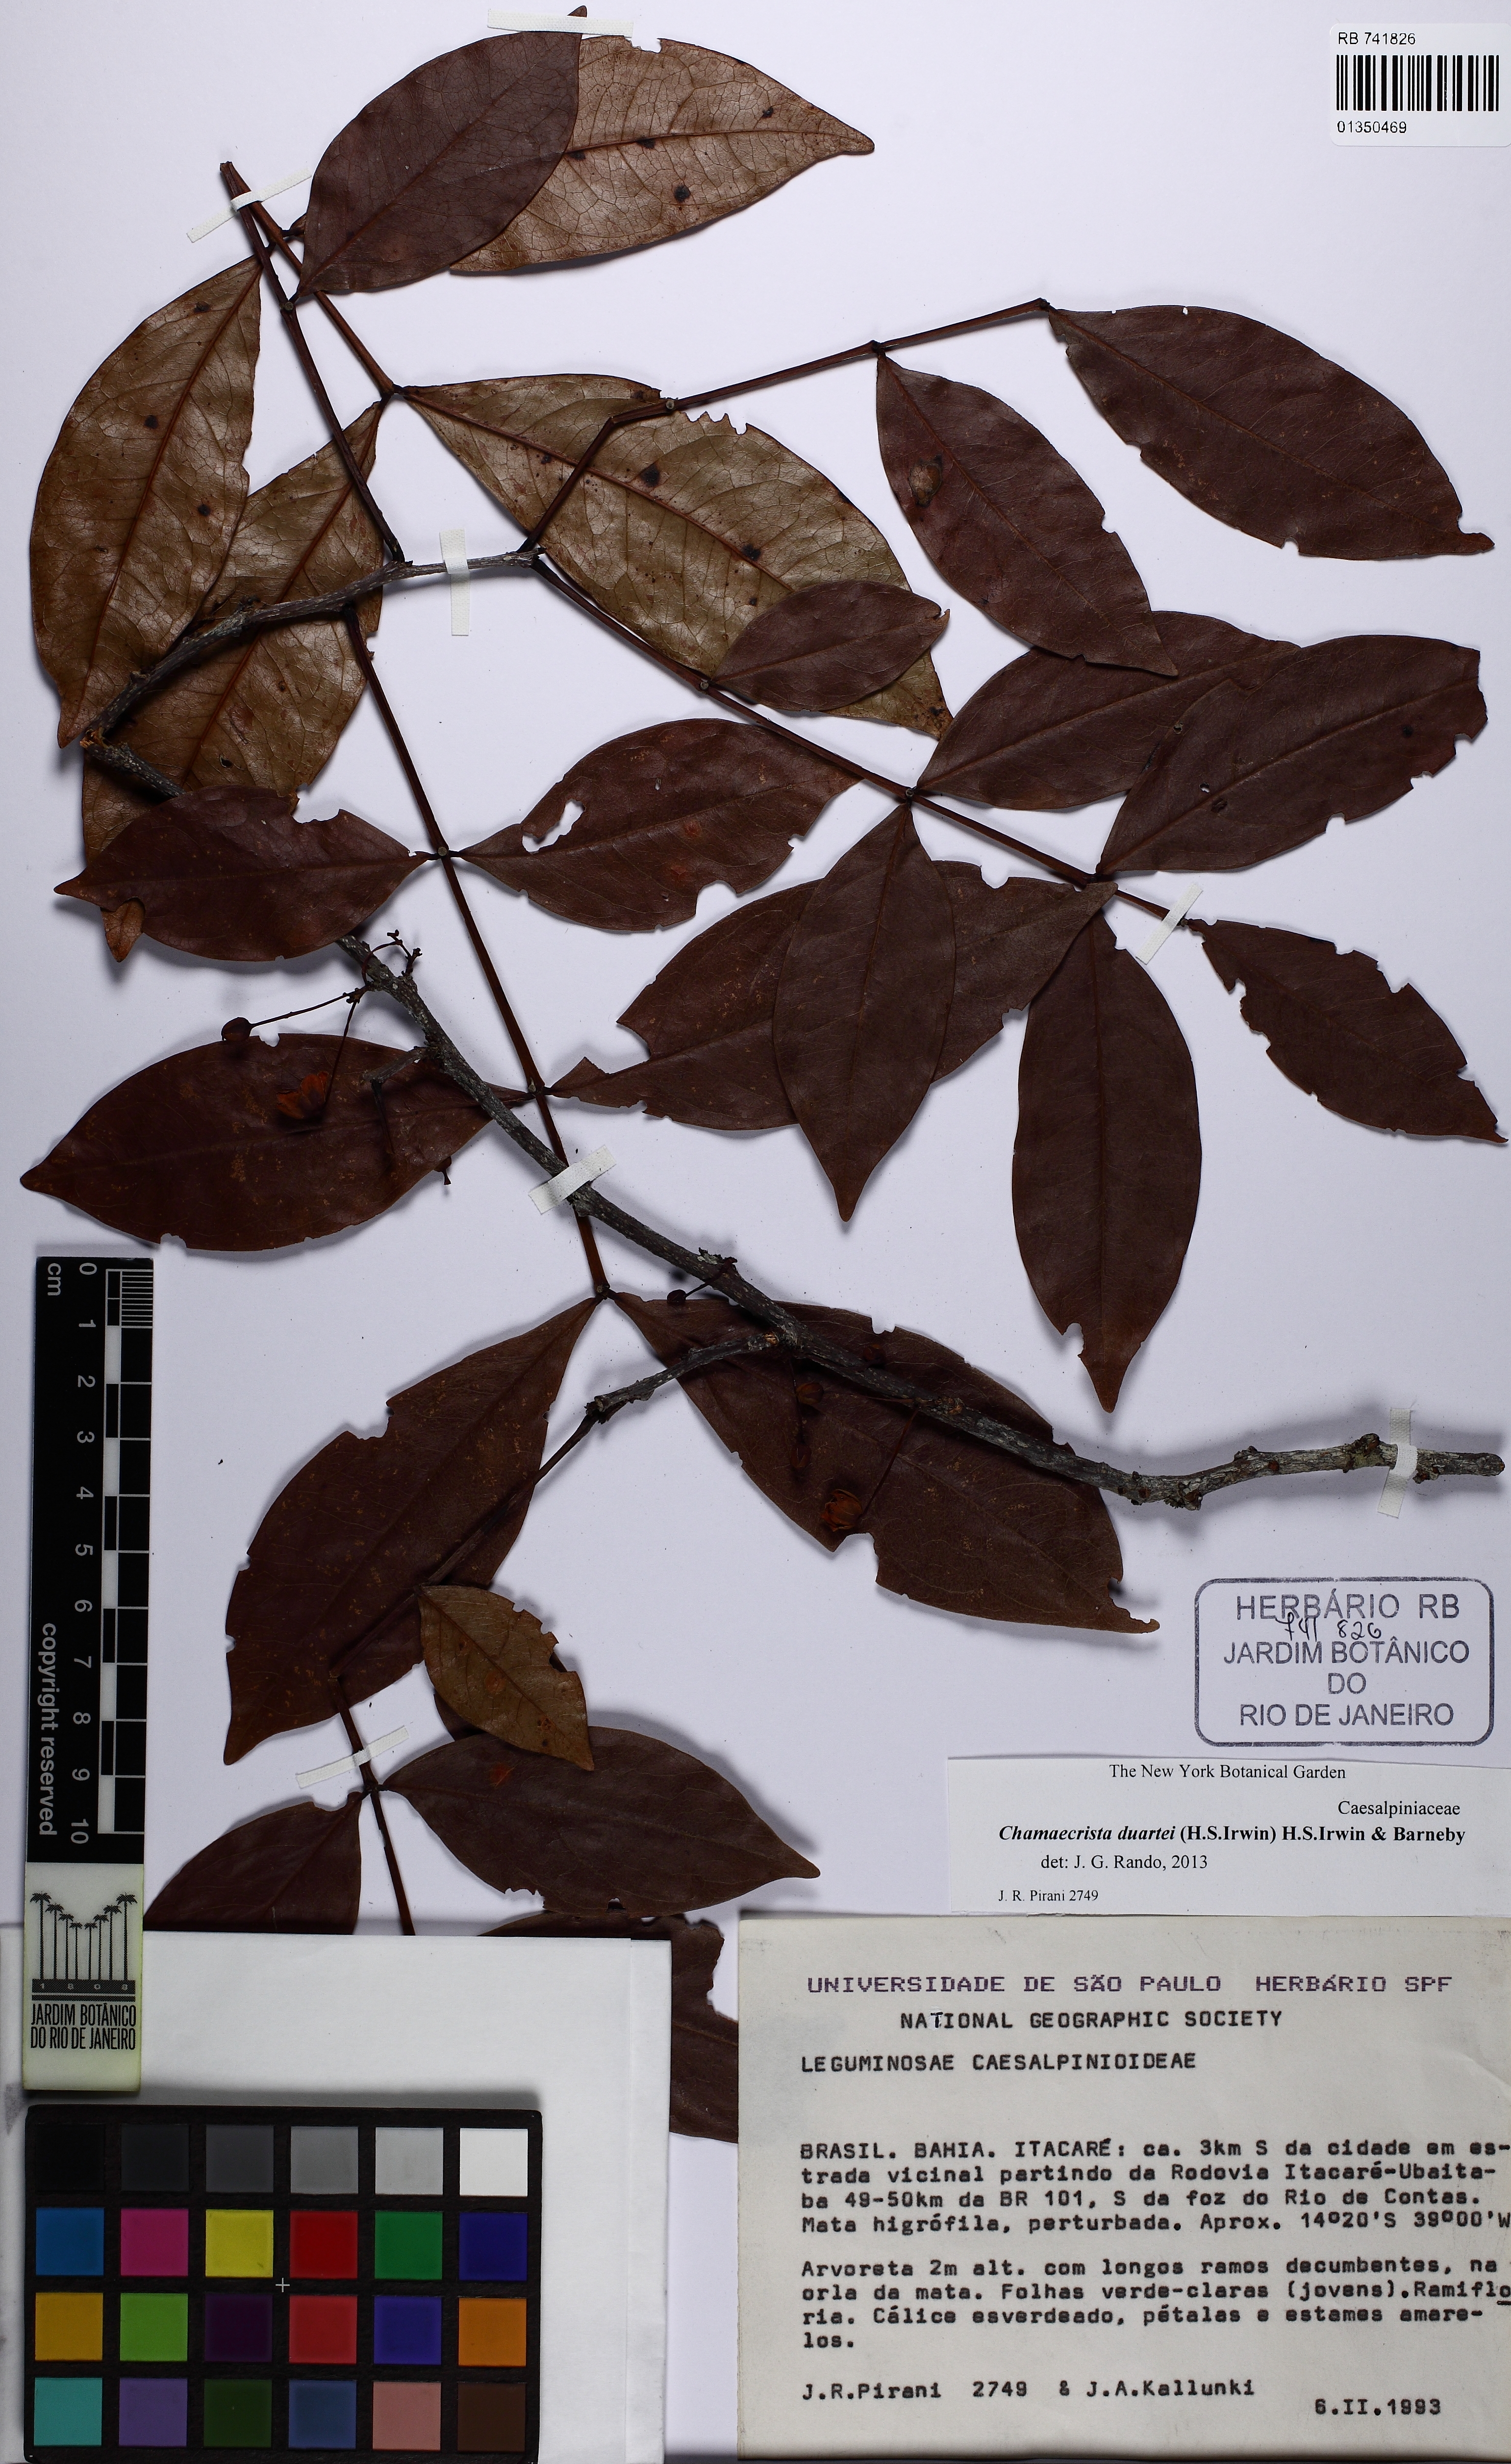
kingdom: Plantae
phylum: Tracheophyta
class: Magnoliopsida
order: Fabales
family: Fabaceae
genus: Chamaecrista
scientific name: Chamaecrista duartei
